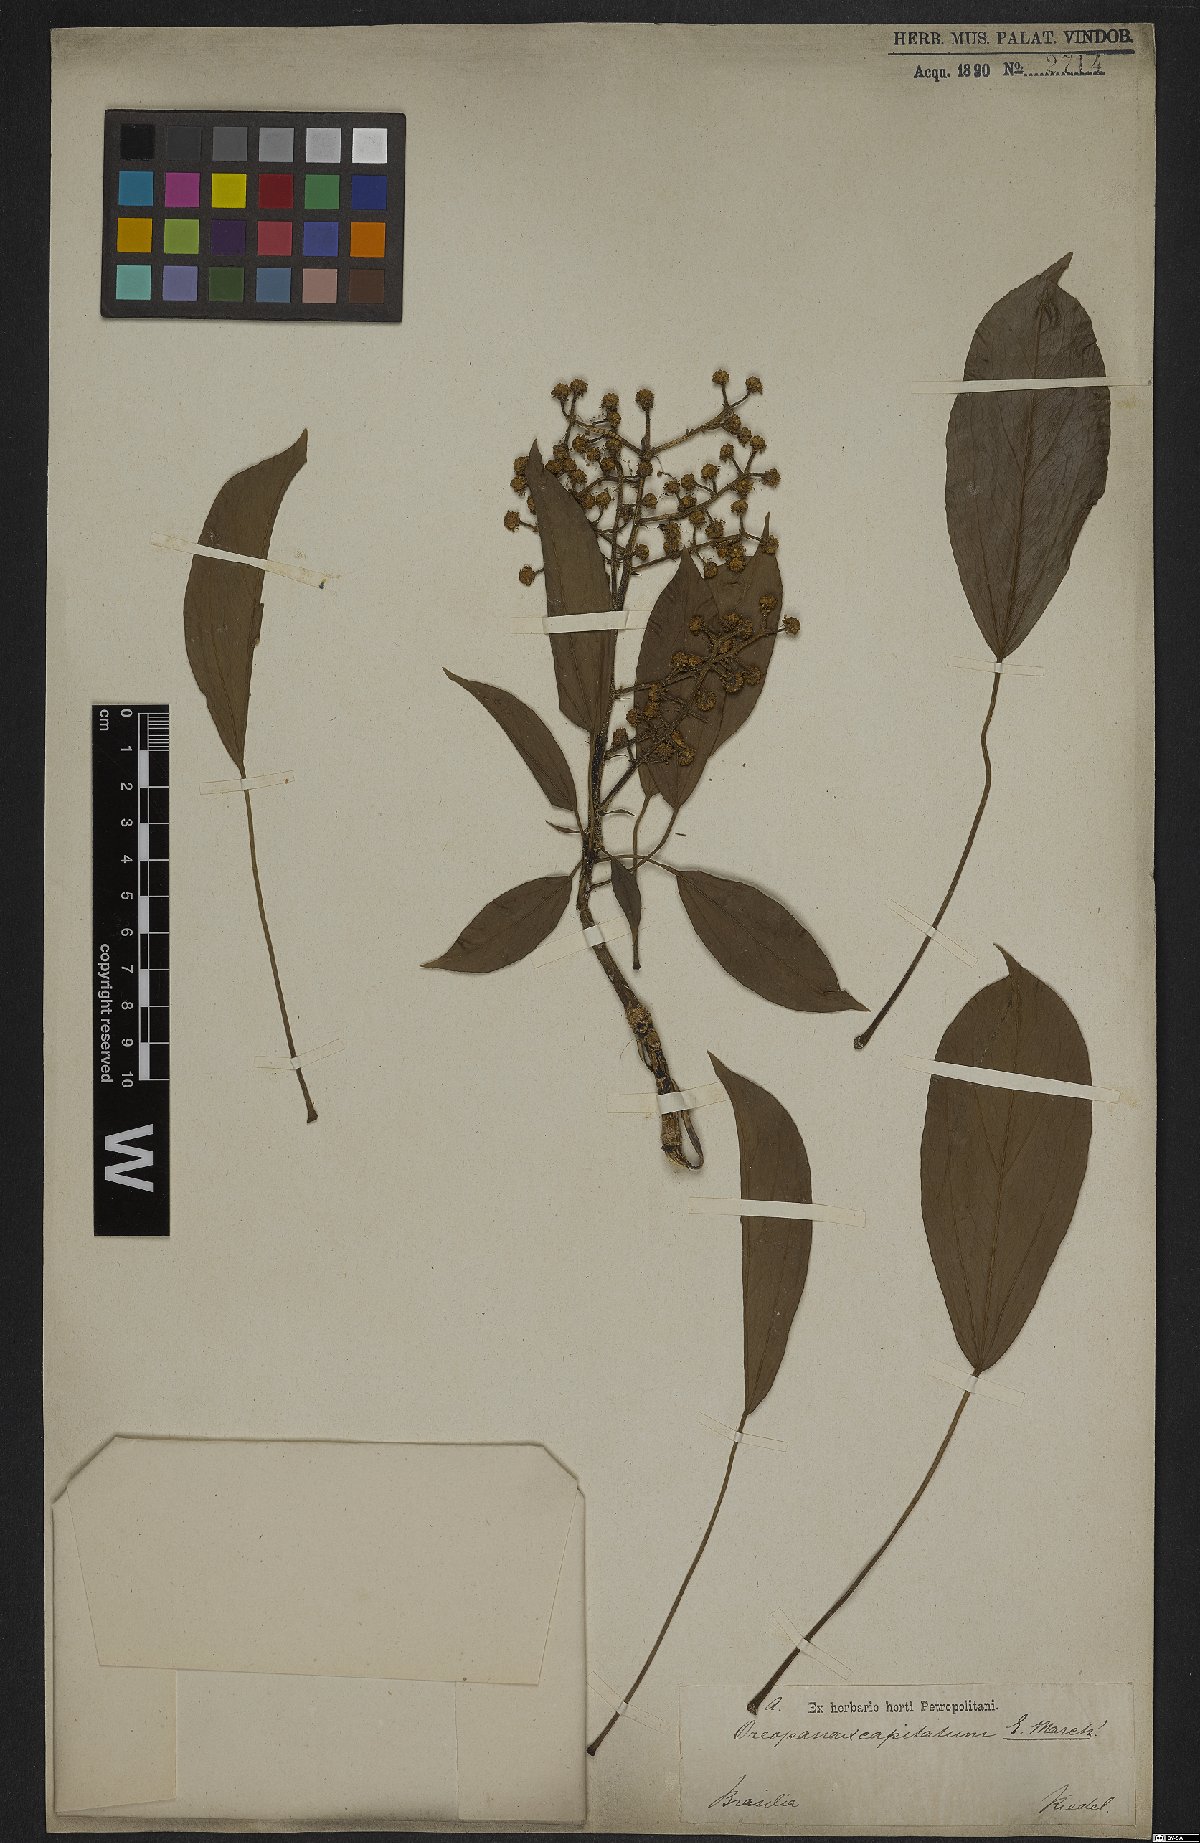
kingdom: Plantae
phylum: Tracheophyta
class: Magnoliopsida
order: Apiales
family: Araliaceae
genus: Oreopanax
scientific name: Oreopanax capitatus
